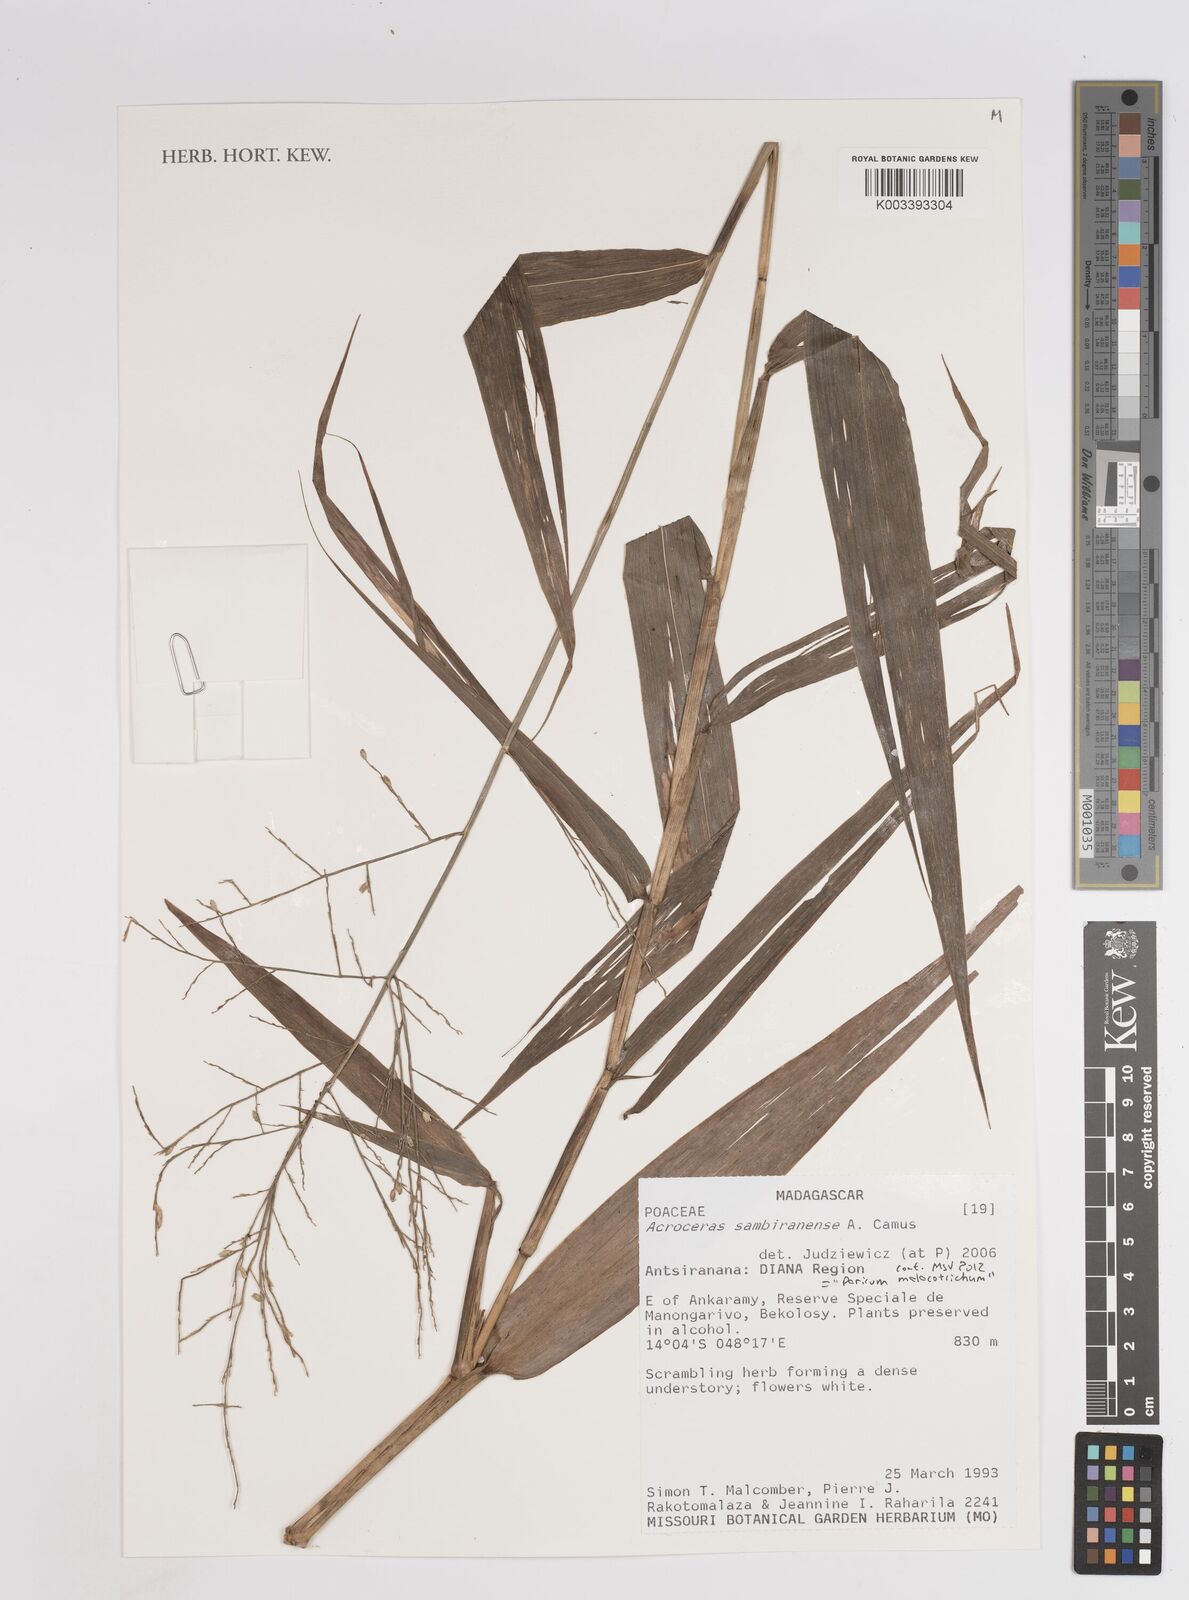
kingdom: Plantae
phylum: Tracheophyta
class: Liliopsida
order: Poales
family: Poaceae
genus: Panicum
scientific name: Panicum malacotrichum
